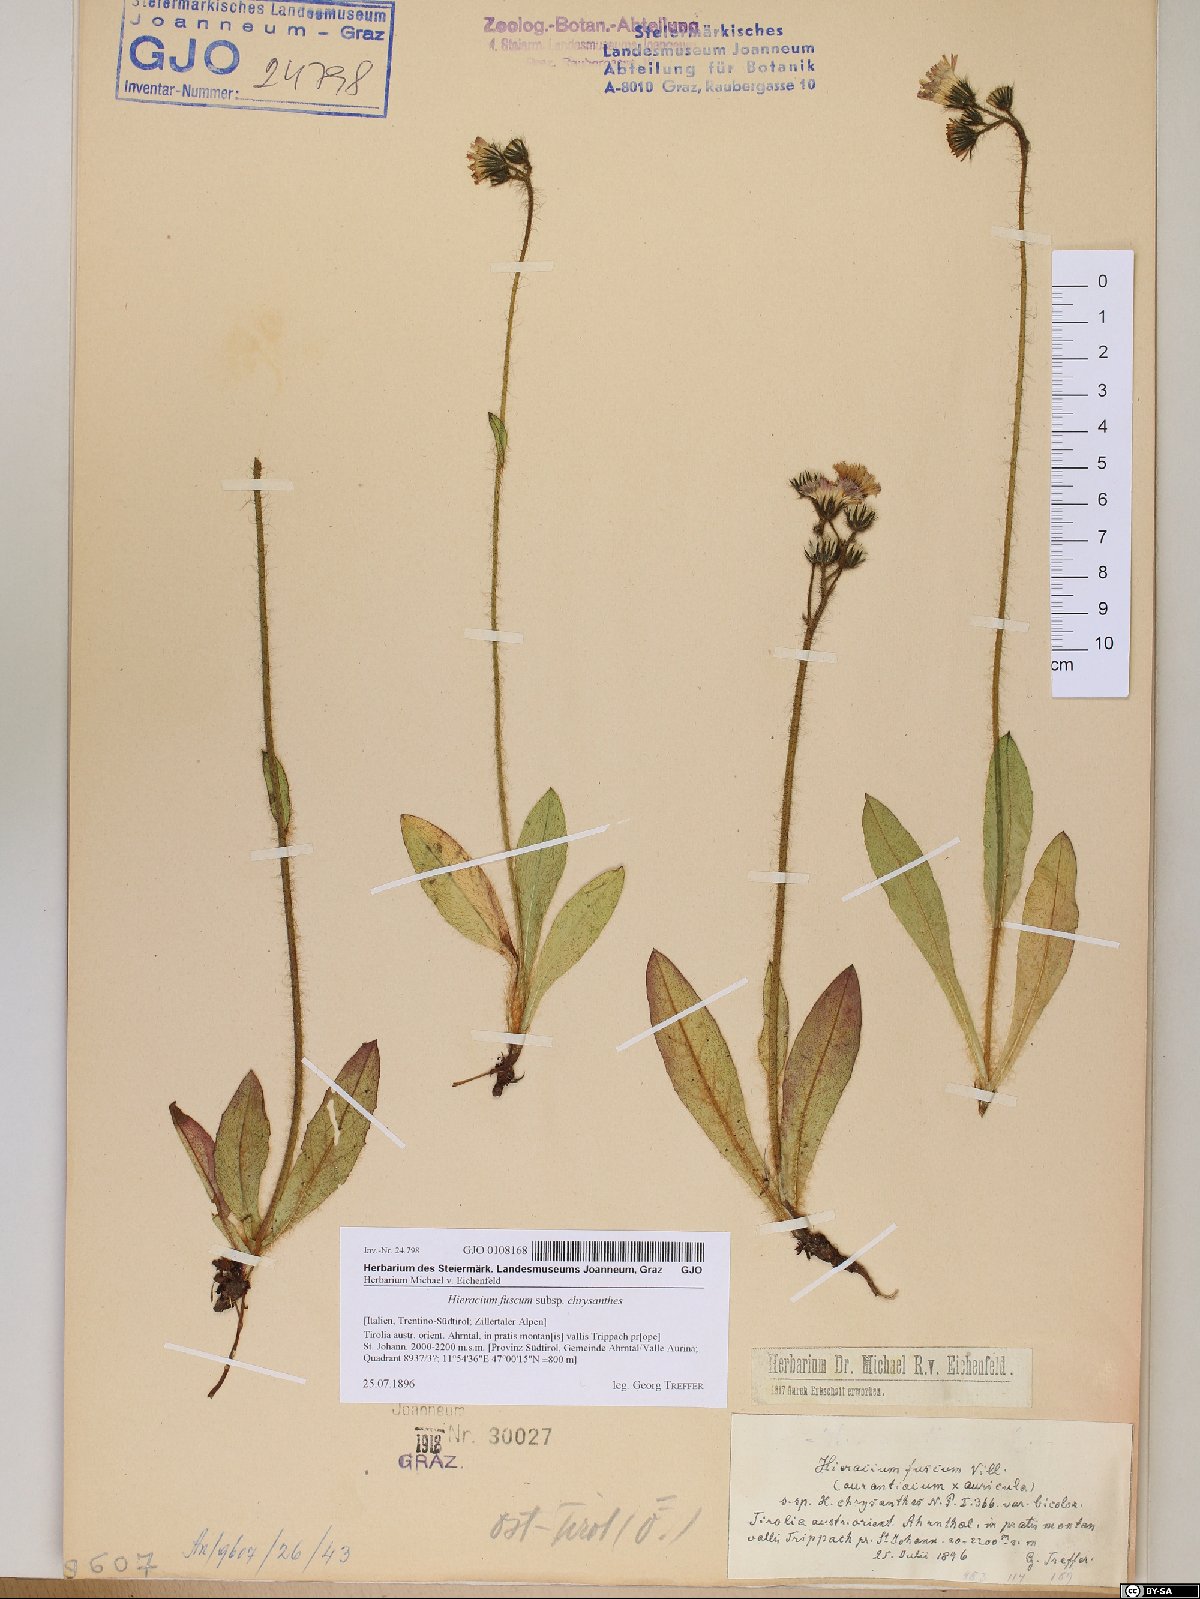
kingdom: Plantae
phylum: Tracheophyta
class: Magnoliopsida
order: Asterales
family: Asteraceae
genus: Pilosella
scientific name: Pilosella fusca
